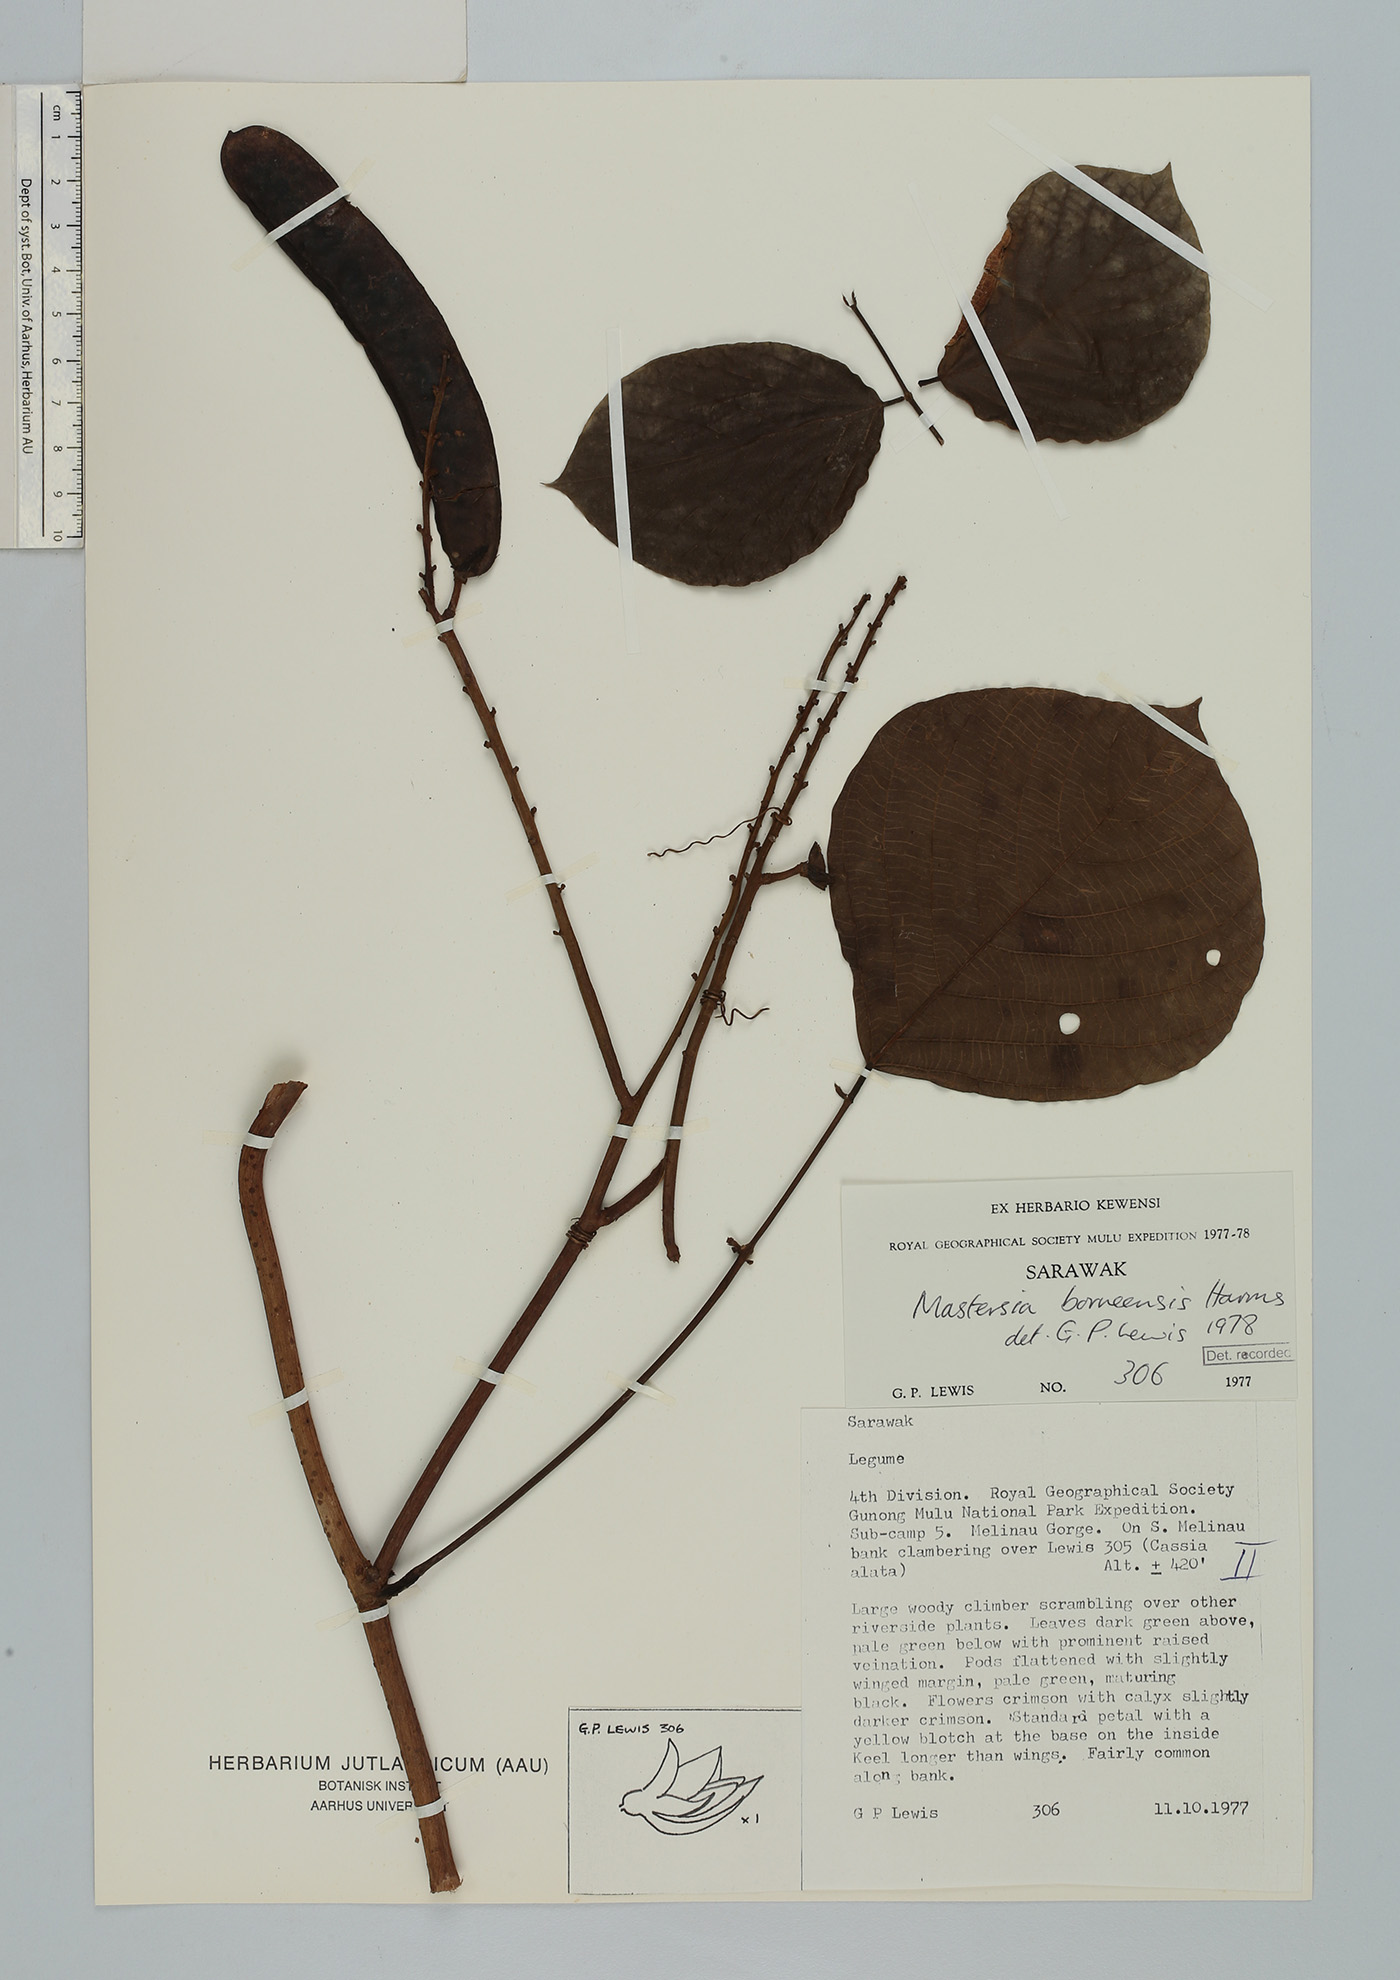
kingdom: Plantae
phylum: Tracheophyta
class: Magnoliopsida
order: Fabales
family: Fabaceae
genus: Mastersia
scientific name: Mastersia bakeri
